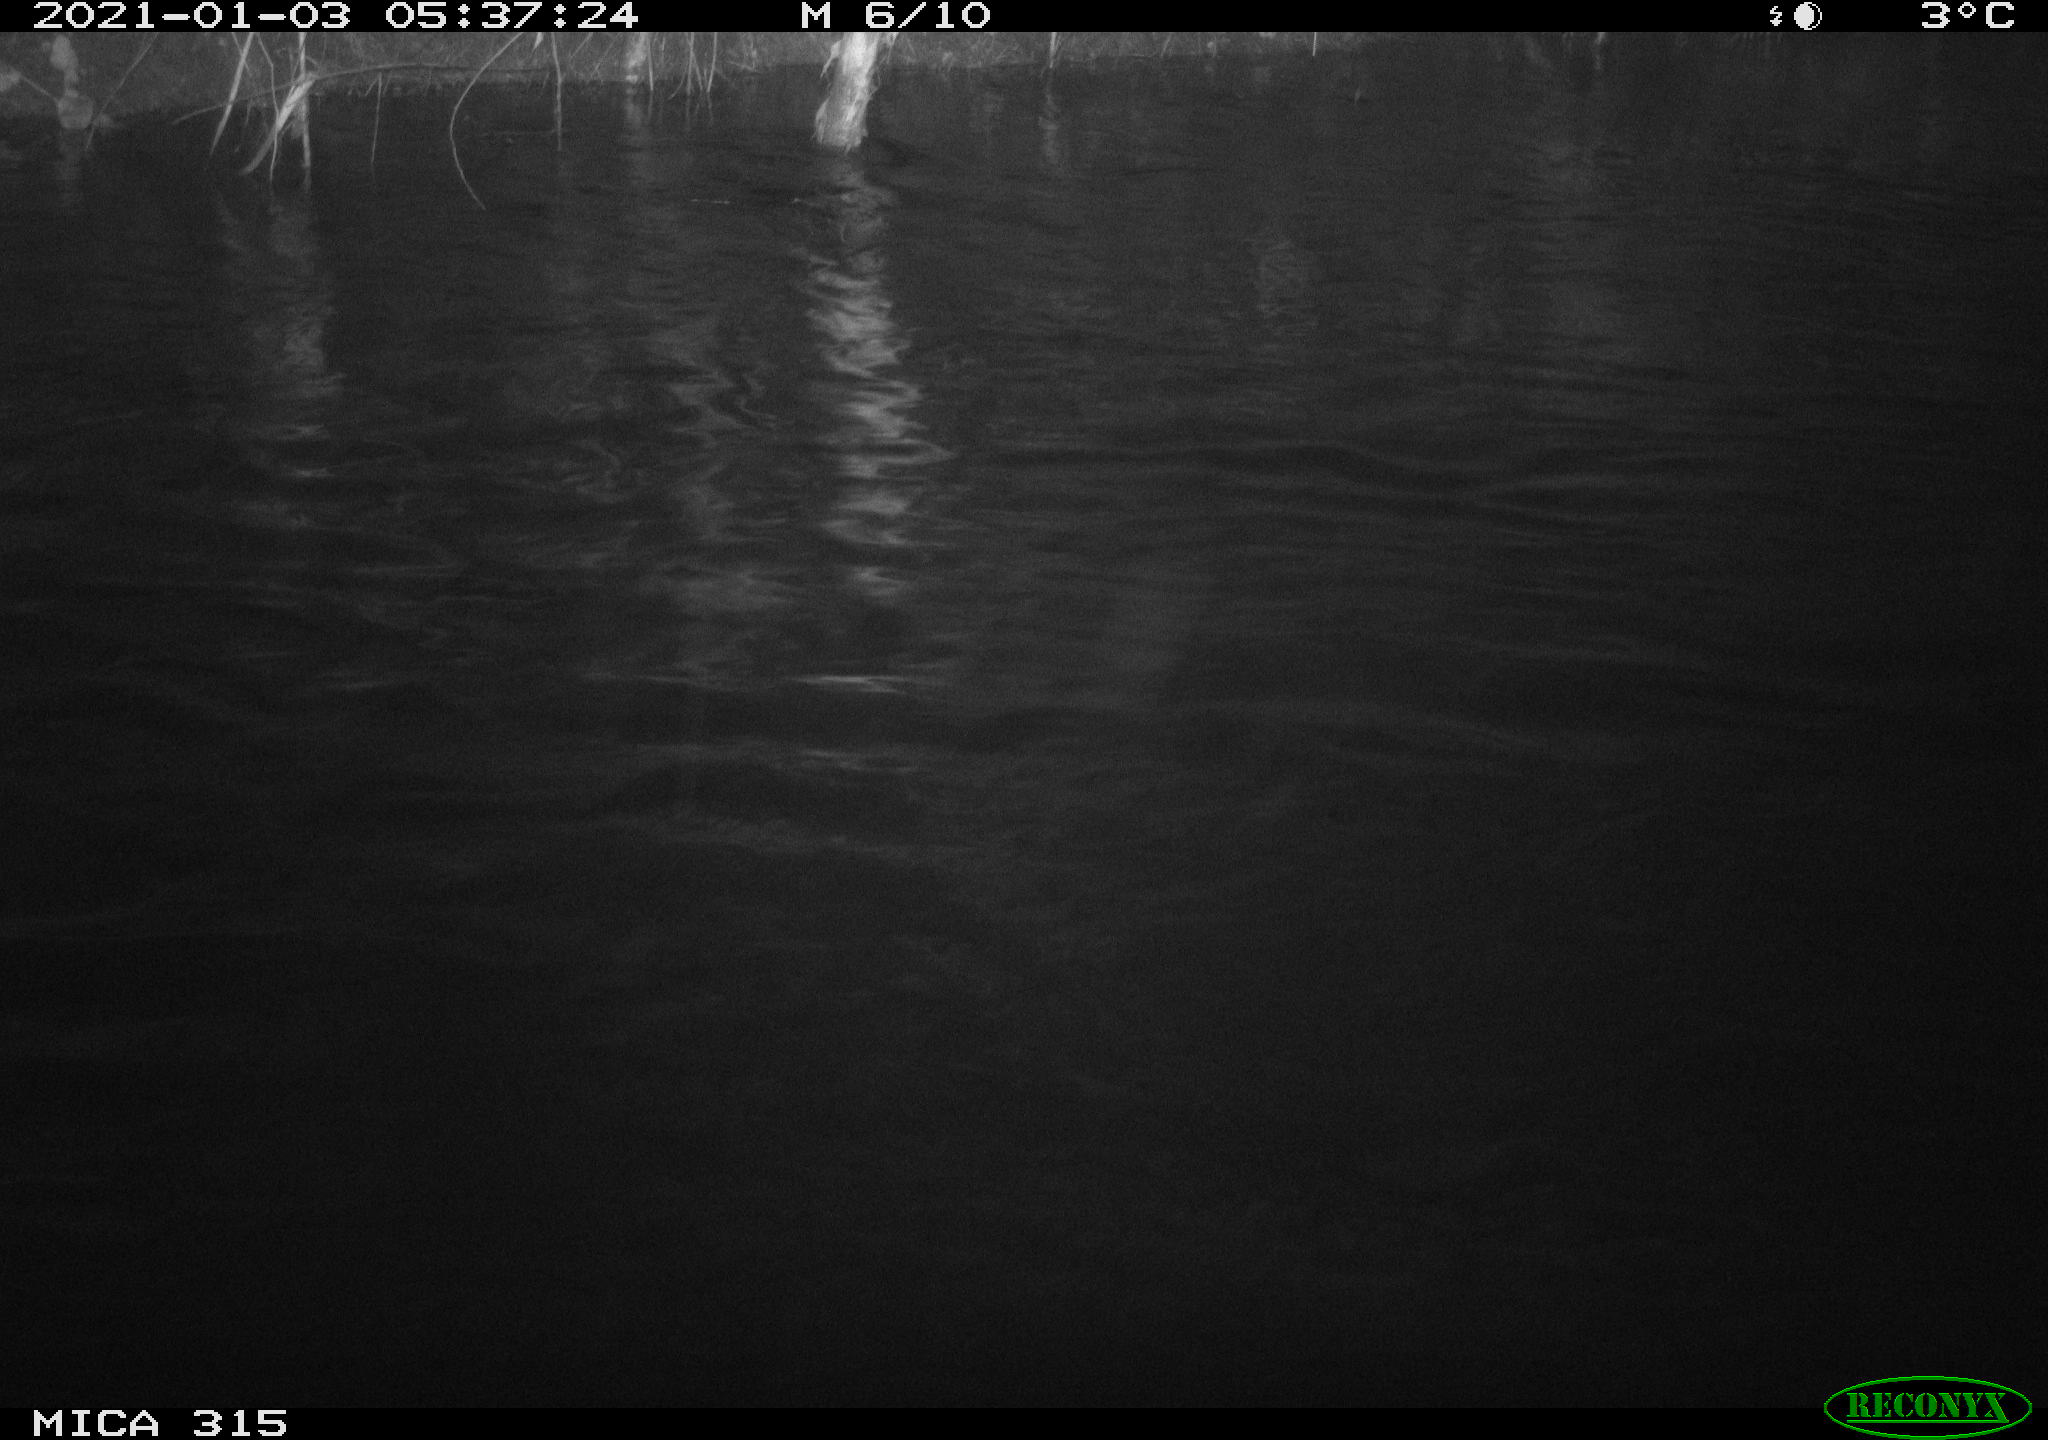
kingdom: Animalia
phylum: Chordata
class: Aves
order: Anseriformes
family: Anatidae
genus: Anas
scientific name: Anas platyrhynchos
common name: Mallard
